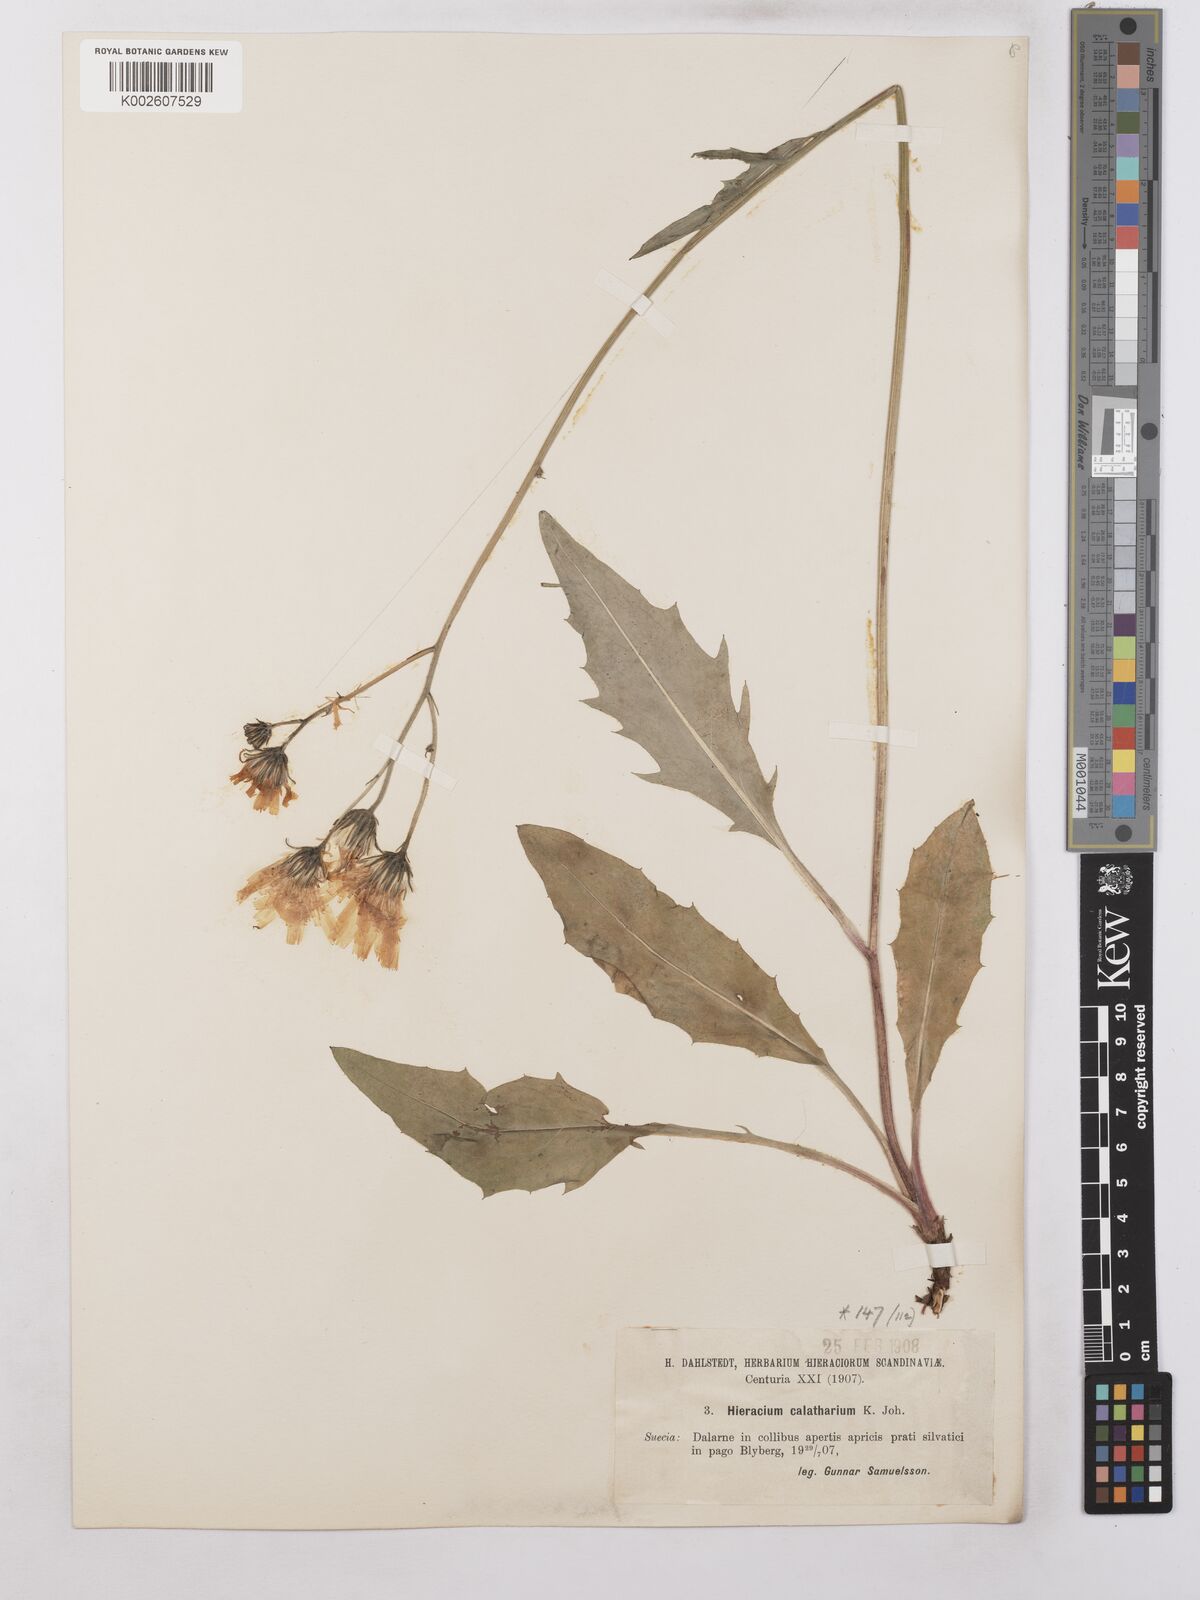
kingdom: Plantae
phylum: Tracheophyta
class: Magnoliopsida
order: Asterales
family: Asteraceae
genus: Hieracium
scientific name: Hieracium caesium
